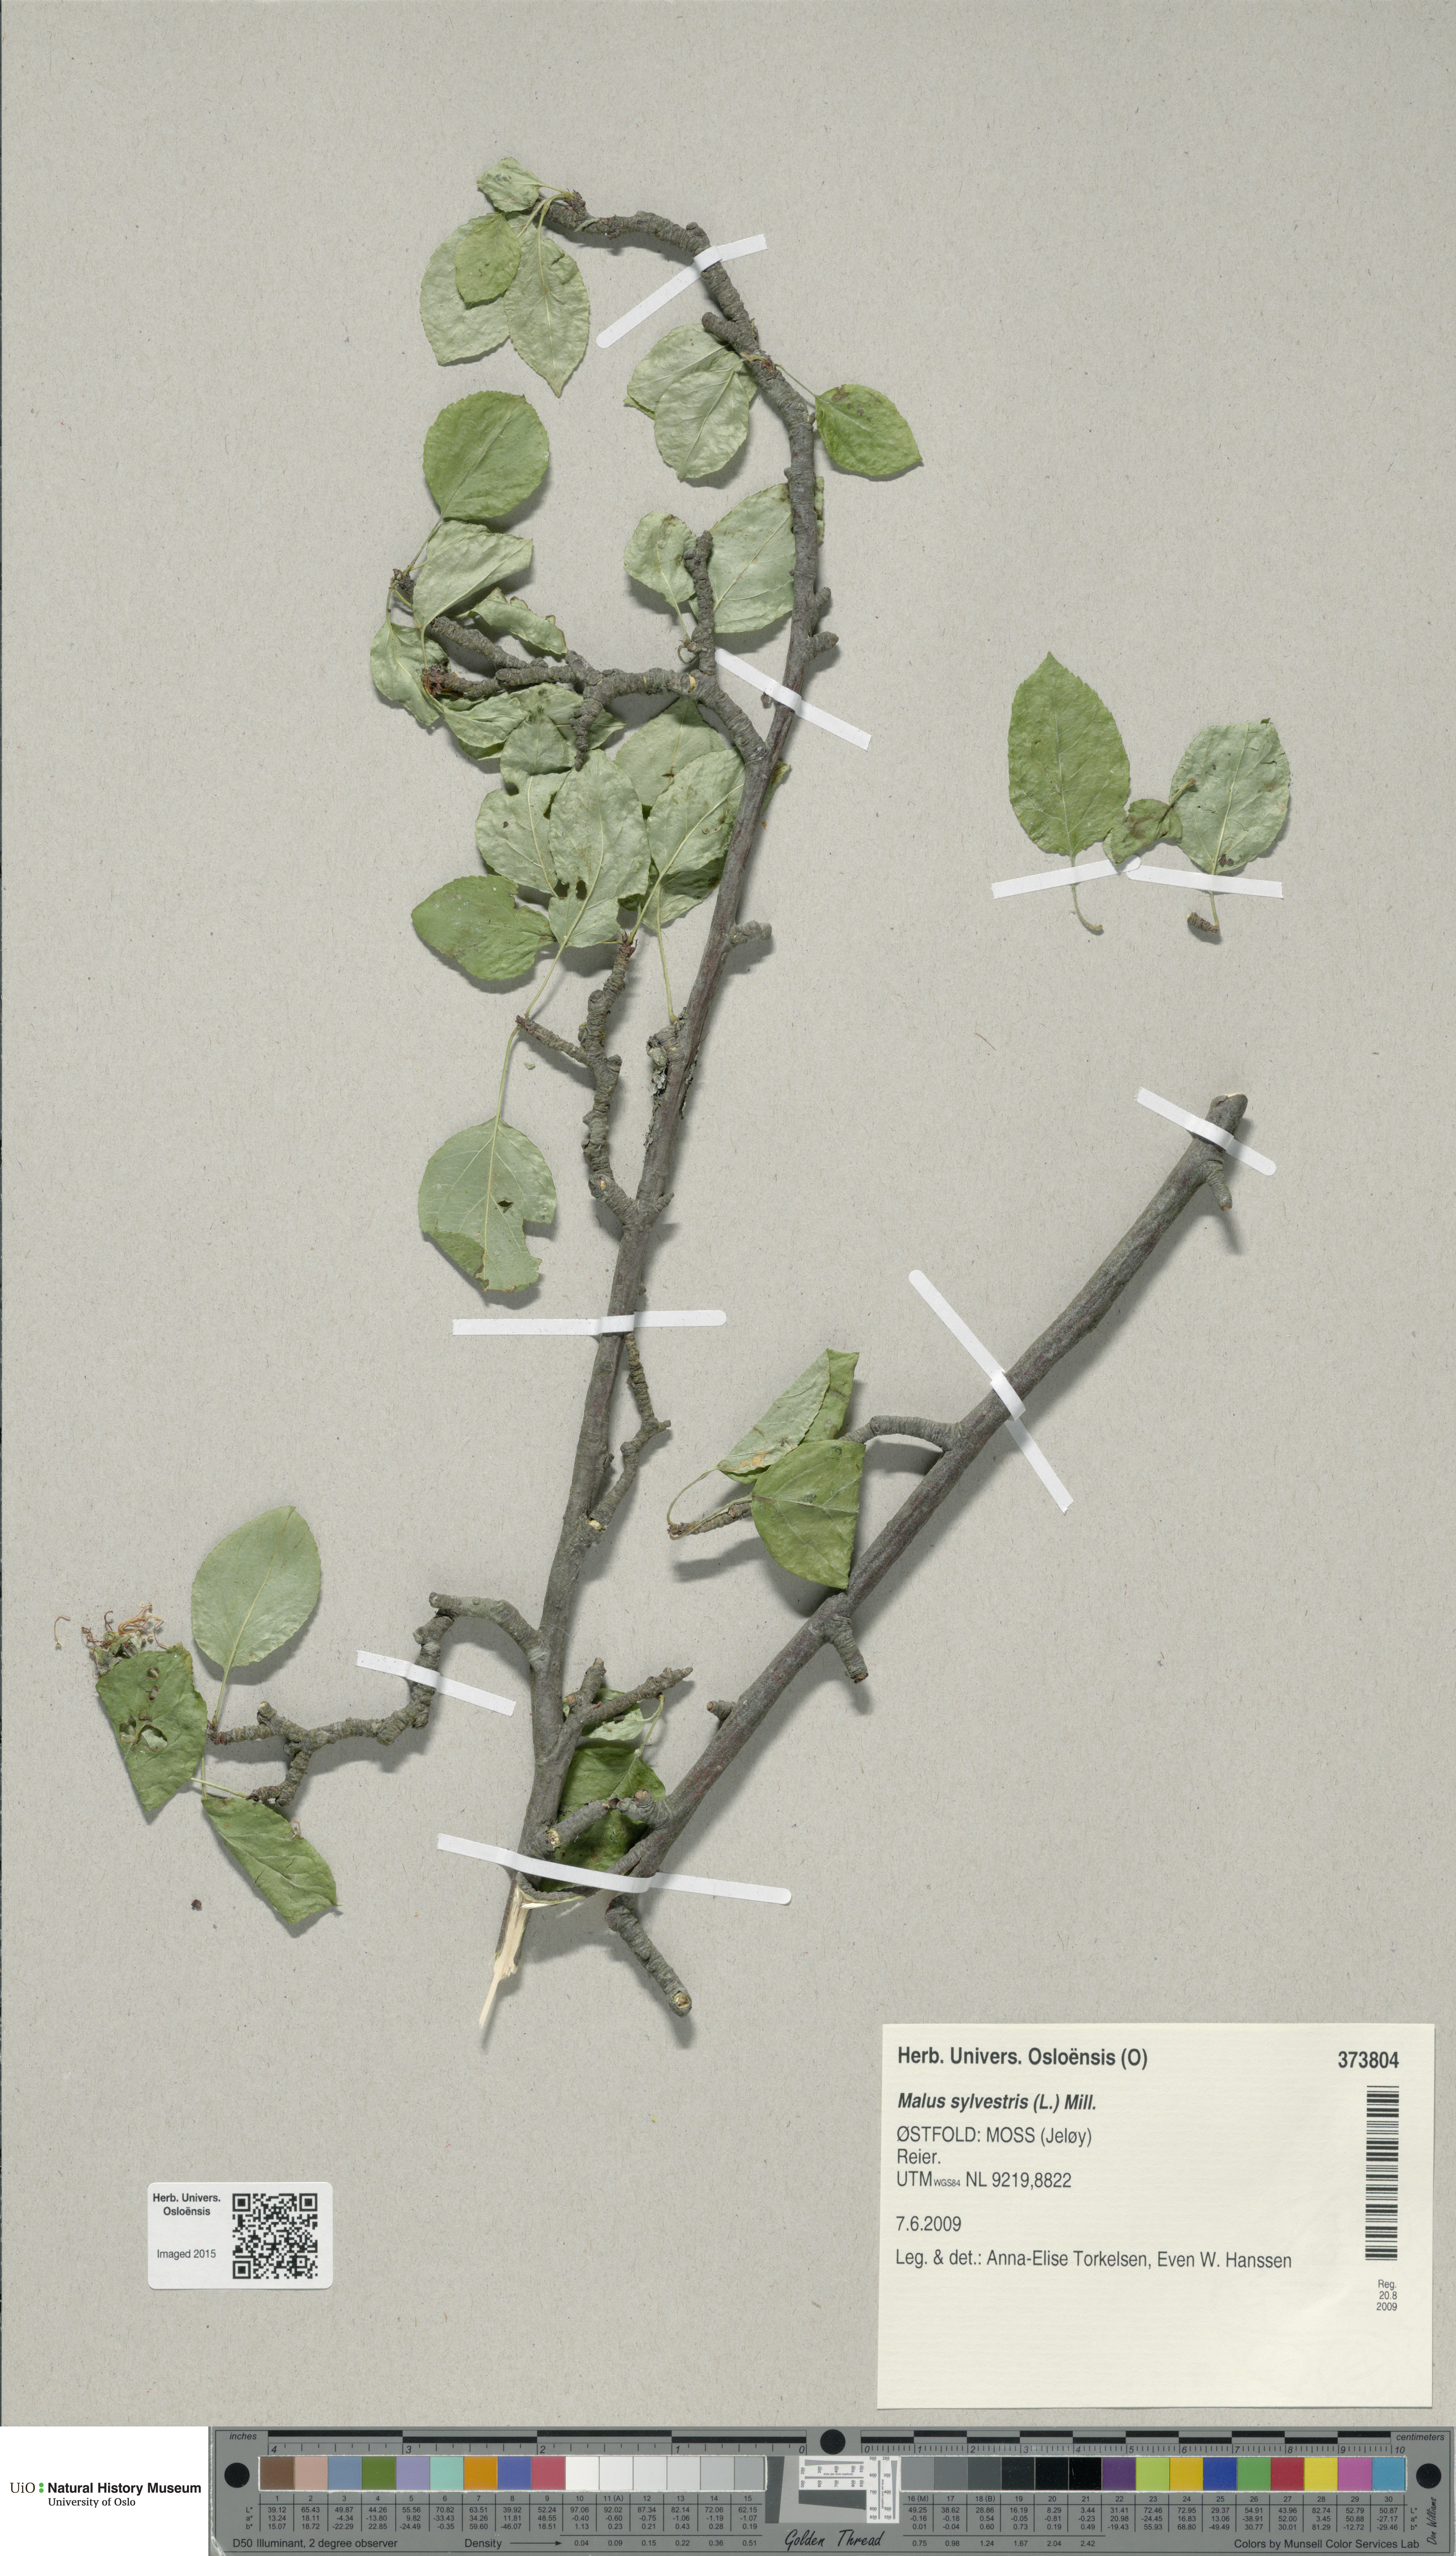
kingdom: Plantae
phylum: Tracheophyta
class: Magnoliopsida
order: Rosales
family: Rosaceae
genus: Malus
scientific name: Malus sylvestris
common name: Crab apple
